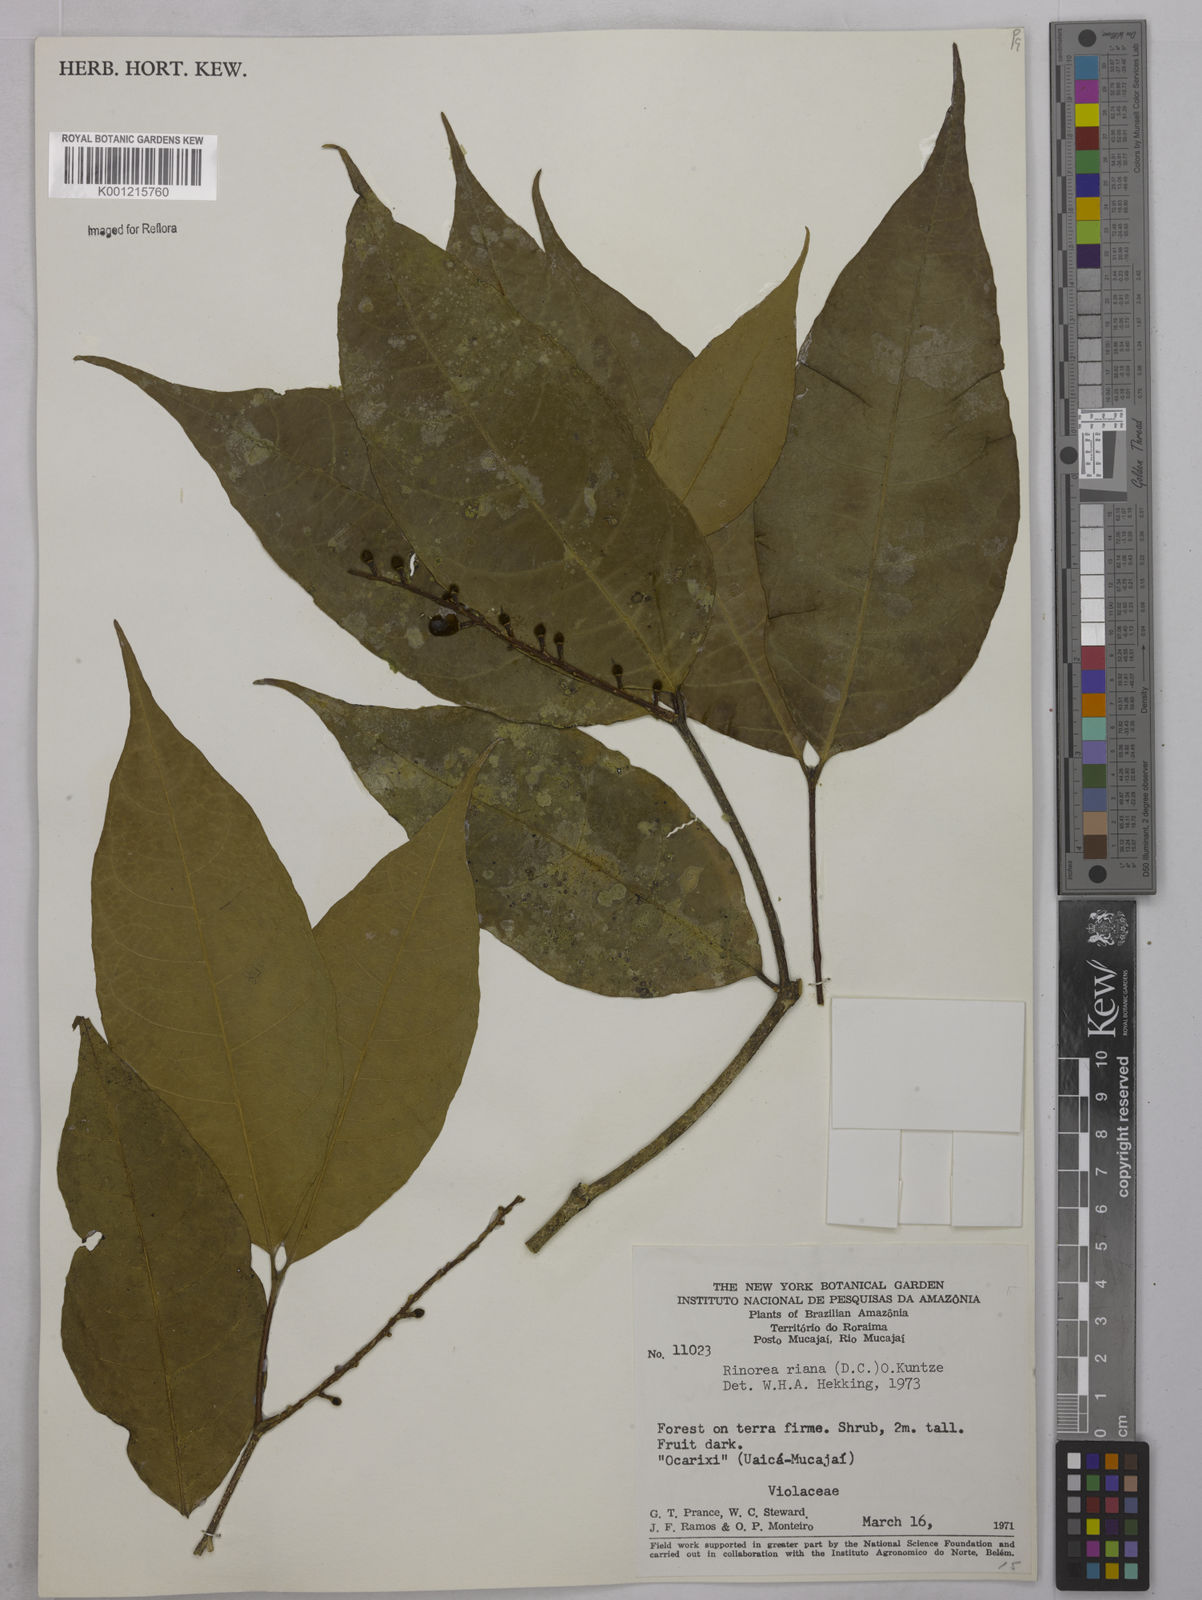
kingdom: Plantae
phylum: Tracheophyta
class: Magnoliopsida
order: Malpighiales
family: Violaceae
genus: Rinorea
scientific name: Rinorea riana
